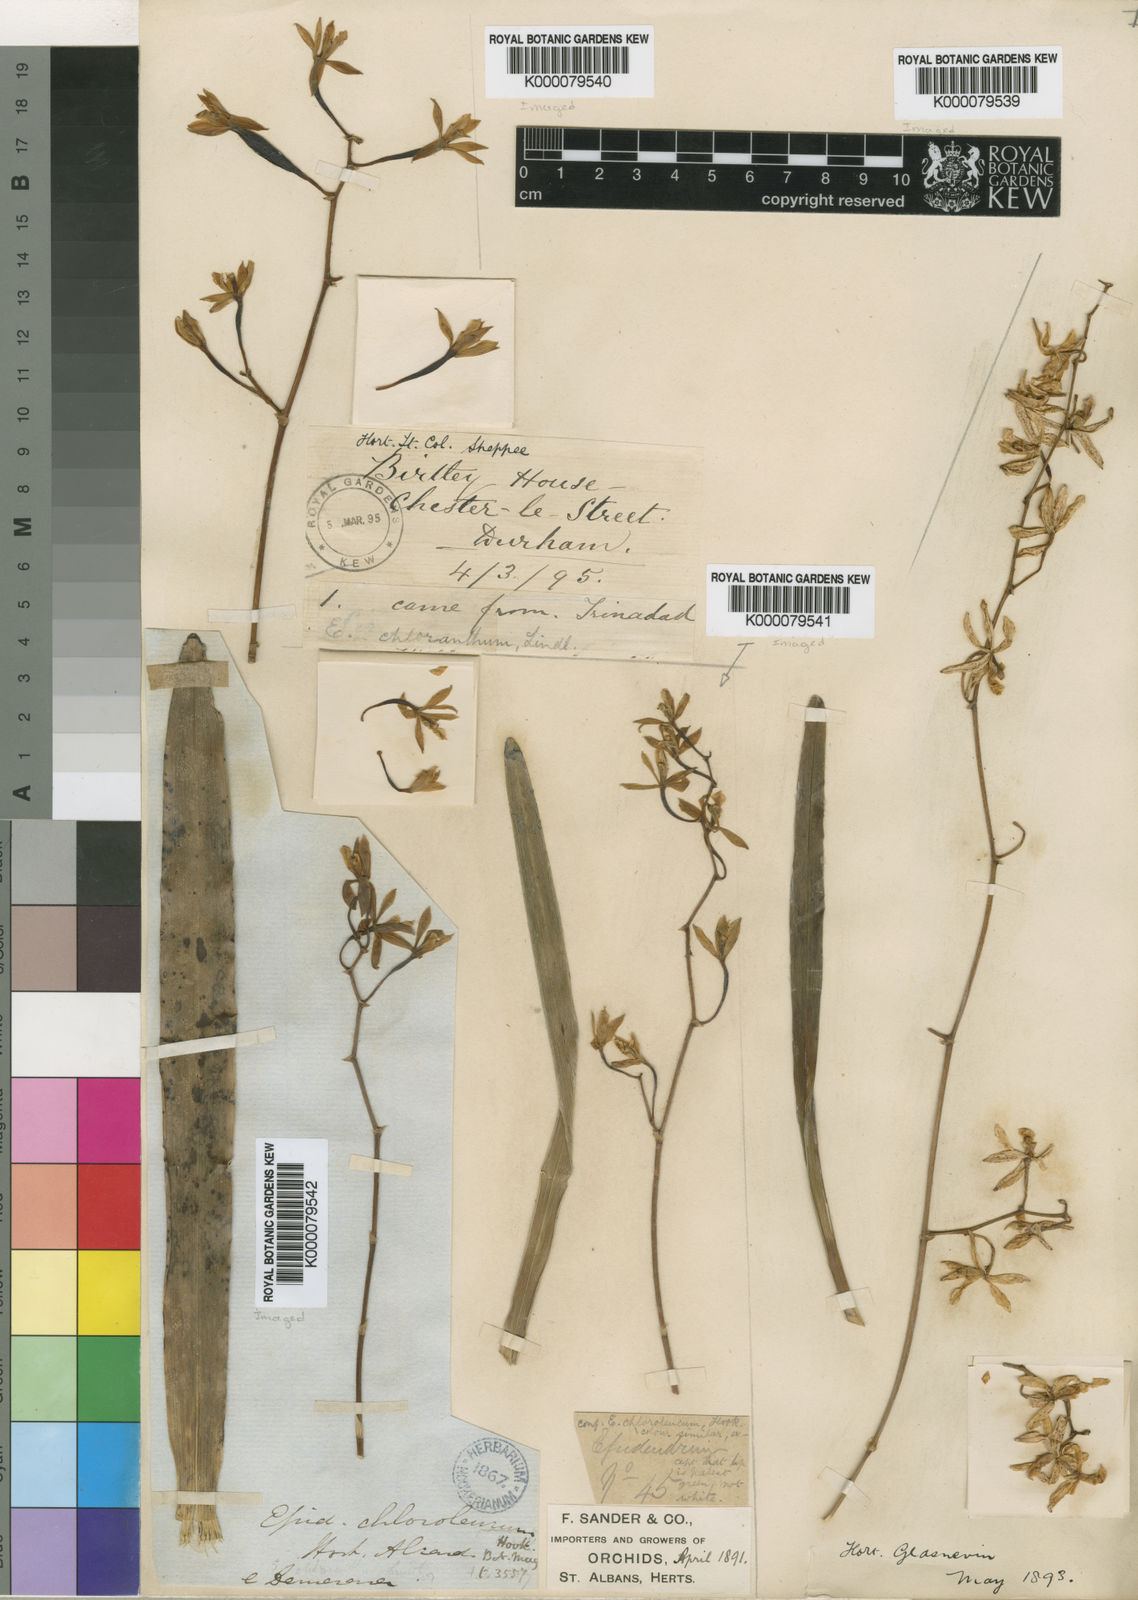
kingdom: Plantae
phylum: Tracheophyta
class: Liliopsida
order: Asparagales
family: Orchidaceae
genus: Encyclia
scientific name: Encyclia chloroleuca
